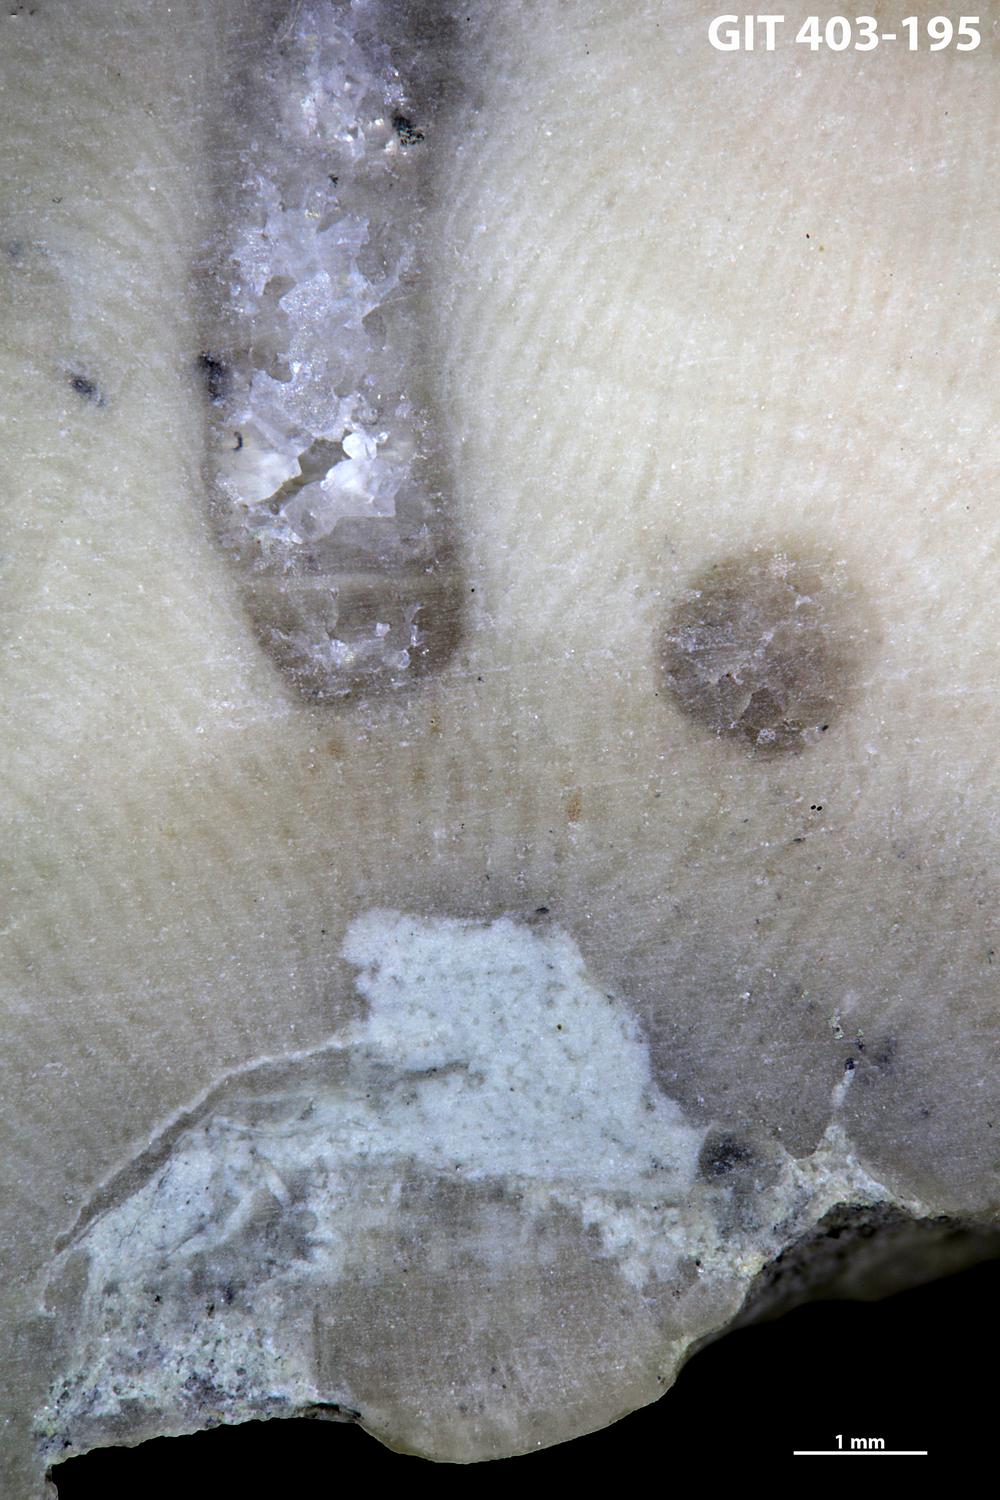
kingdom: Animalia
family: Coprulidae
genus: Coprulus
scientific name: Coprulus
